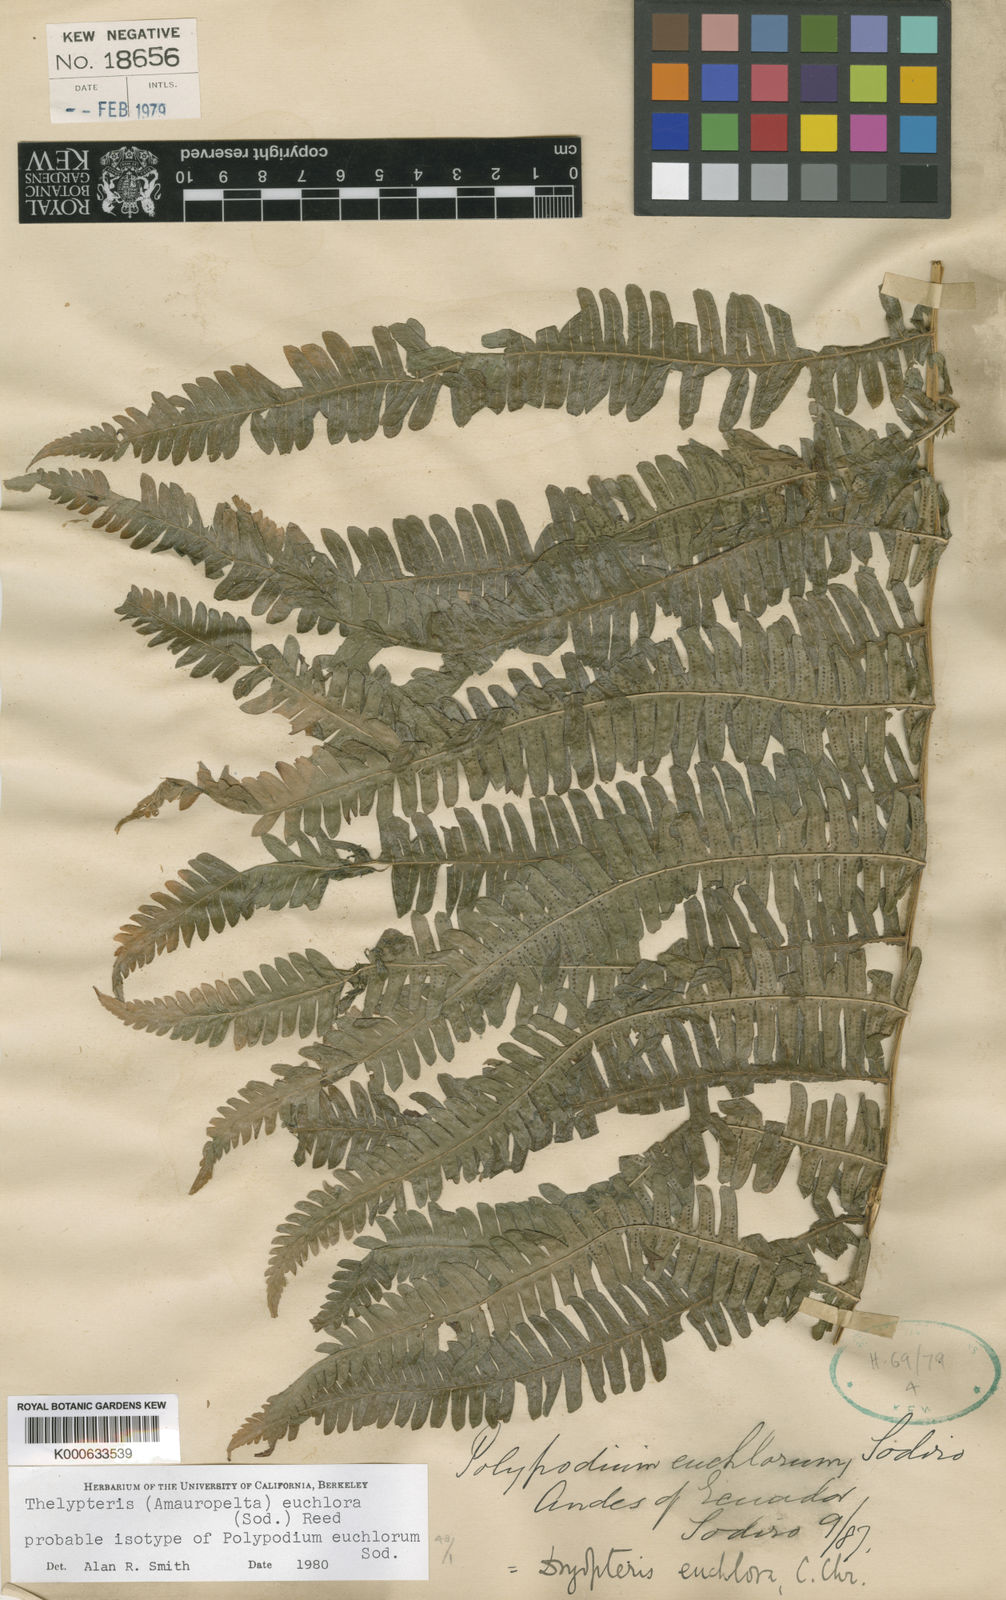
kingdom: Plantae
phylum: Tracheophyta
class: Polypodiopsida
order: Polypodiales
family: Thelypteridaceae
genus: Amauropelta
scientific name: Amauropelta euchlora
